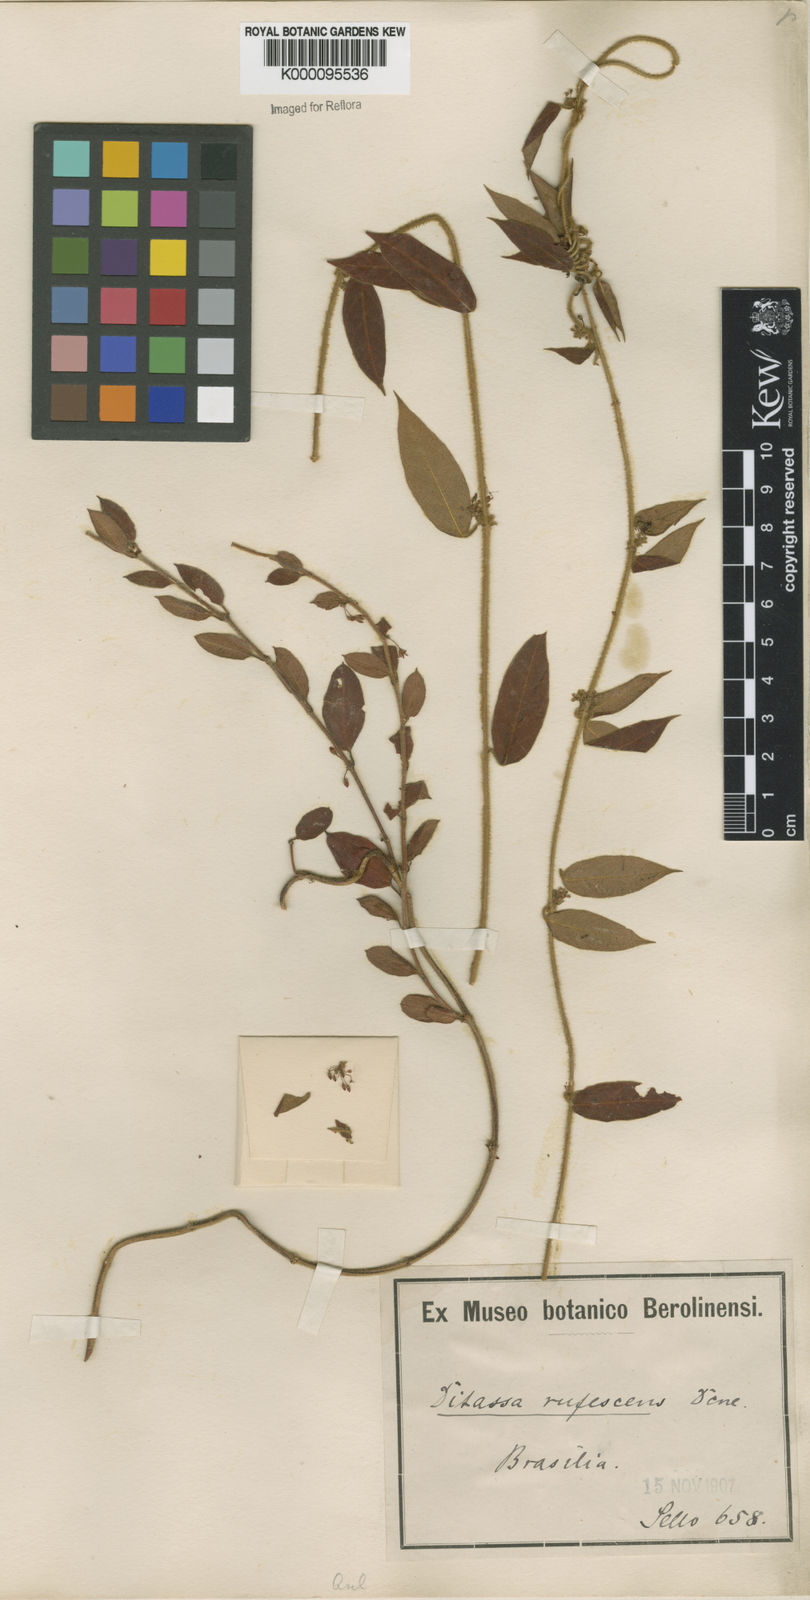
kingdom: Plantae
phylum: Tracheophyta
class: Magnoliopsida
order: Gentianales
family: Apocynaceae
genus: Ditassa
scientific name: Ditassa hispida
